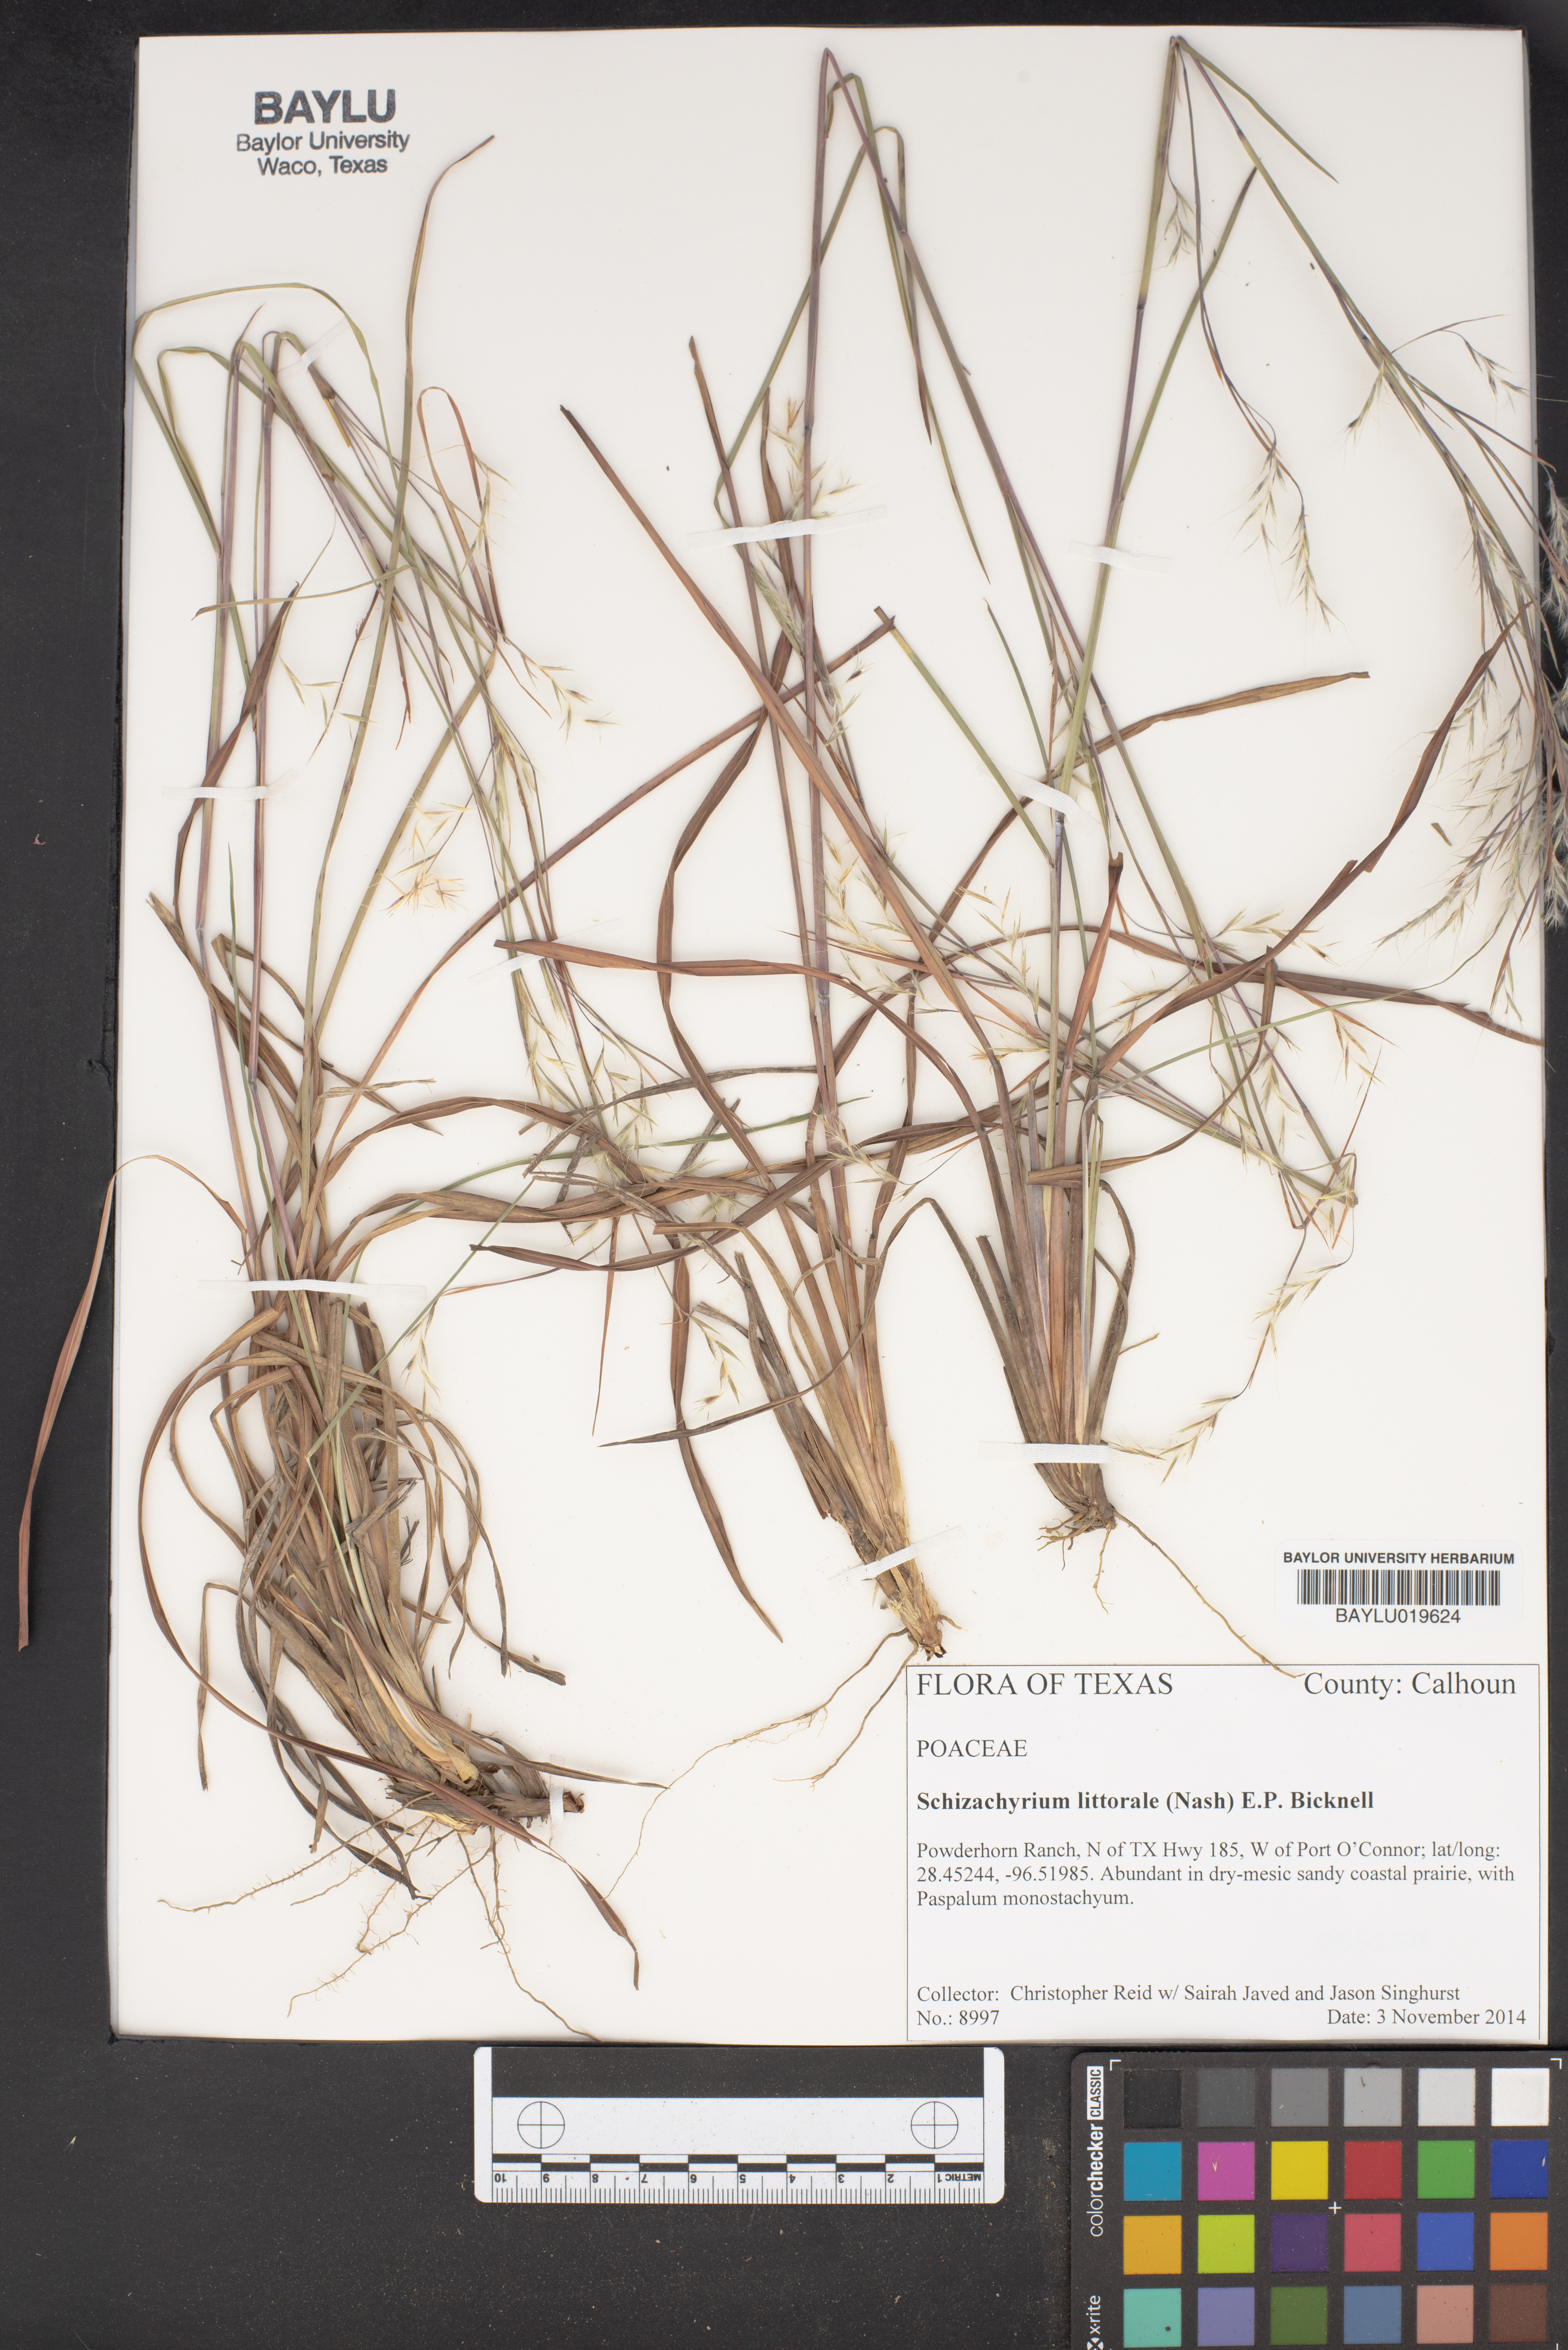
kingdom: Plantae
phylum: Tracheophyta
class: Liliopsida
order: Poales
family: Poaceae
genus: Schizachyrium
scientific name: Schizachyrium scoparium
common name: Little bluestem
